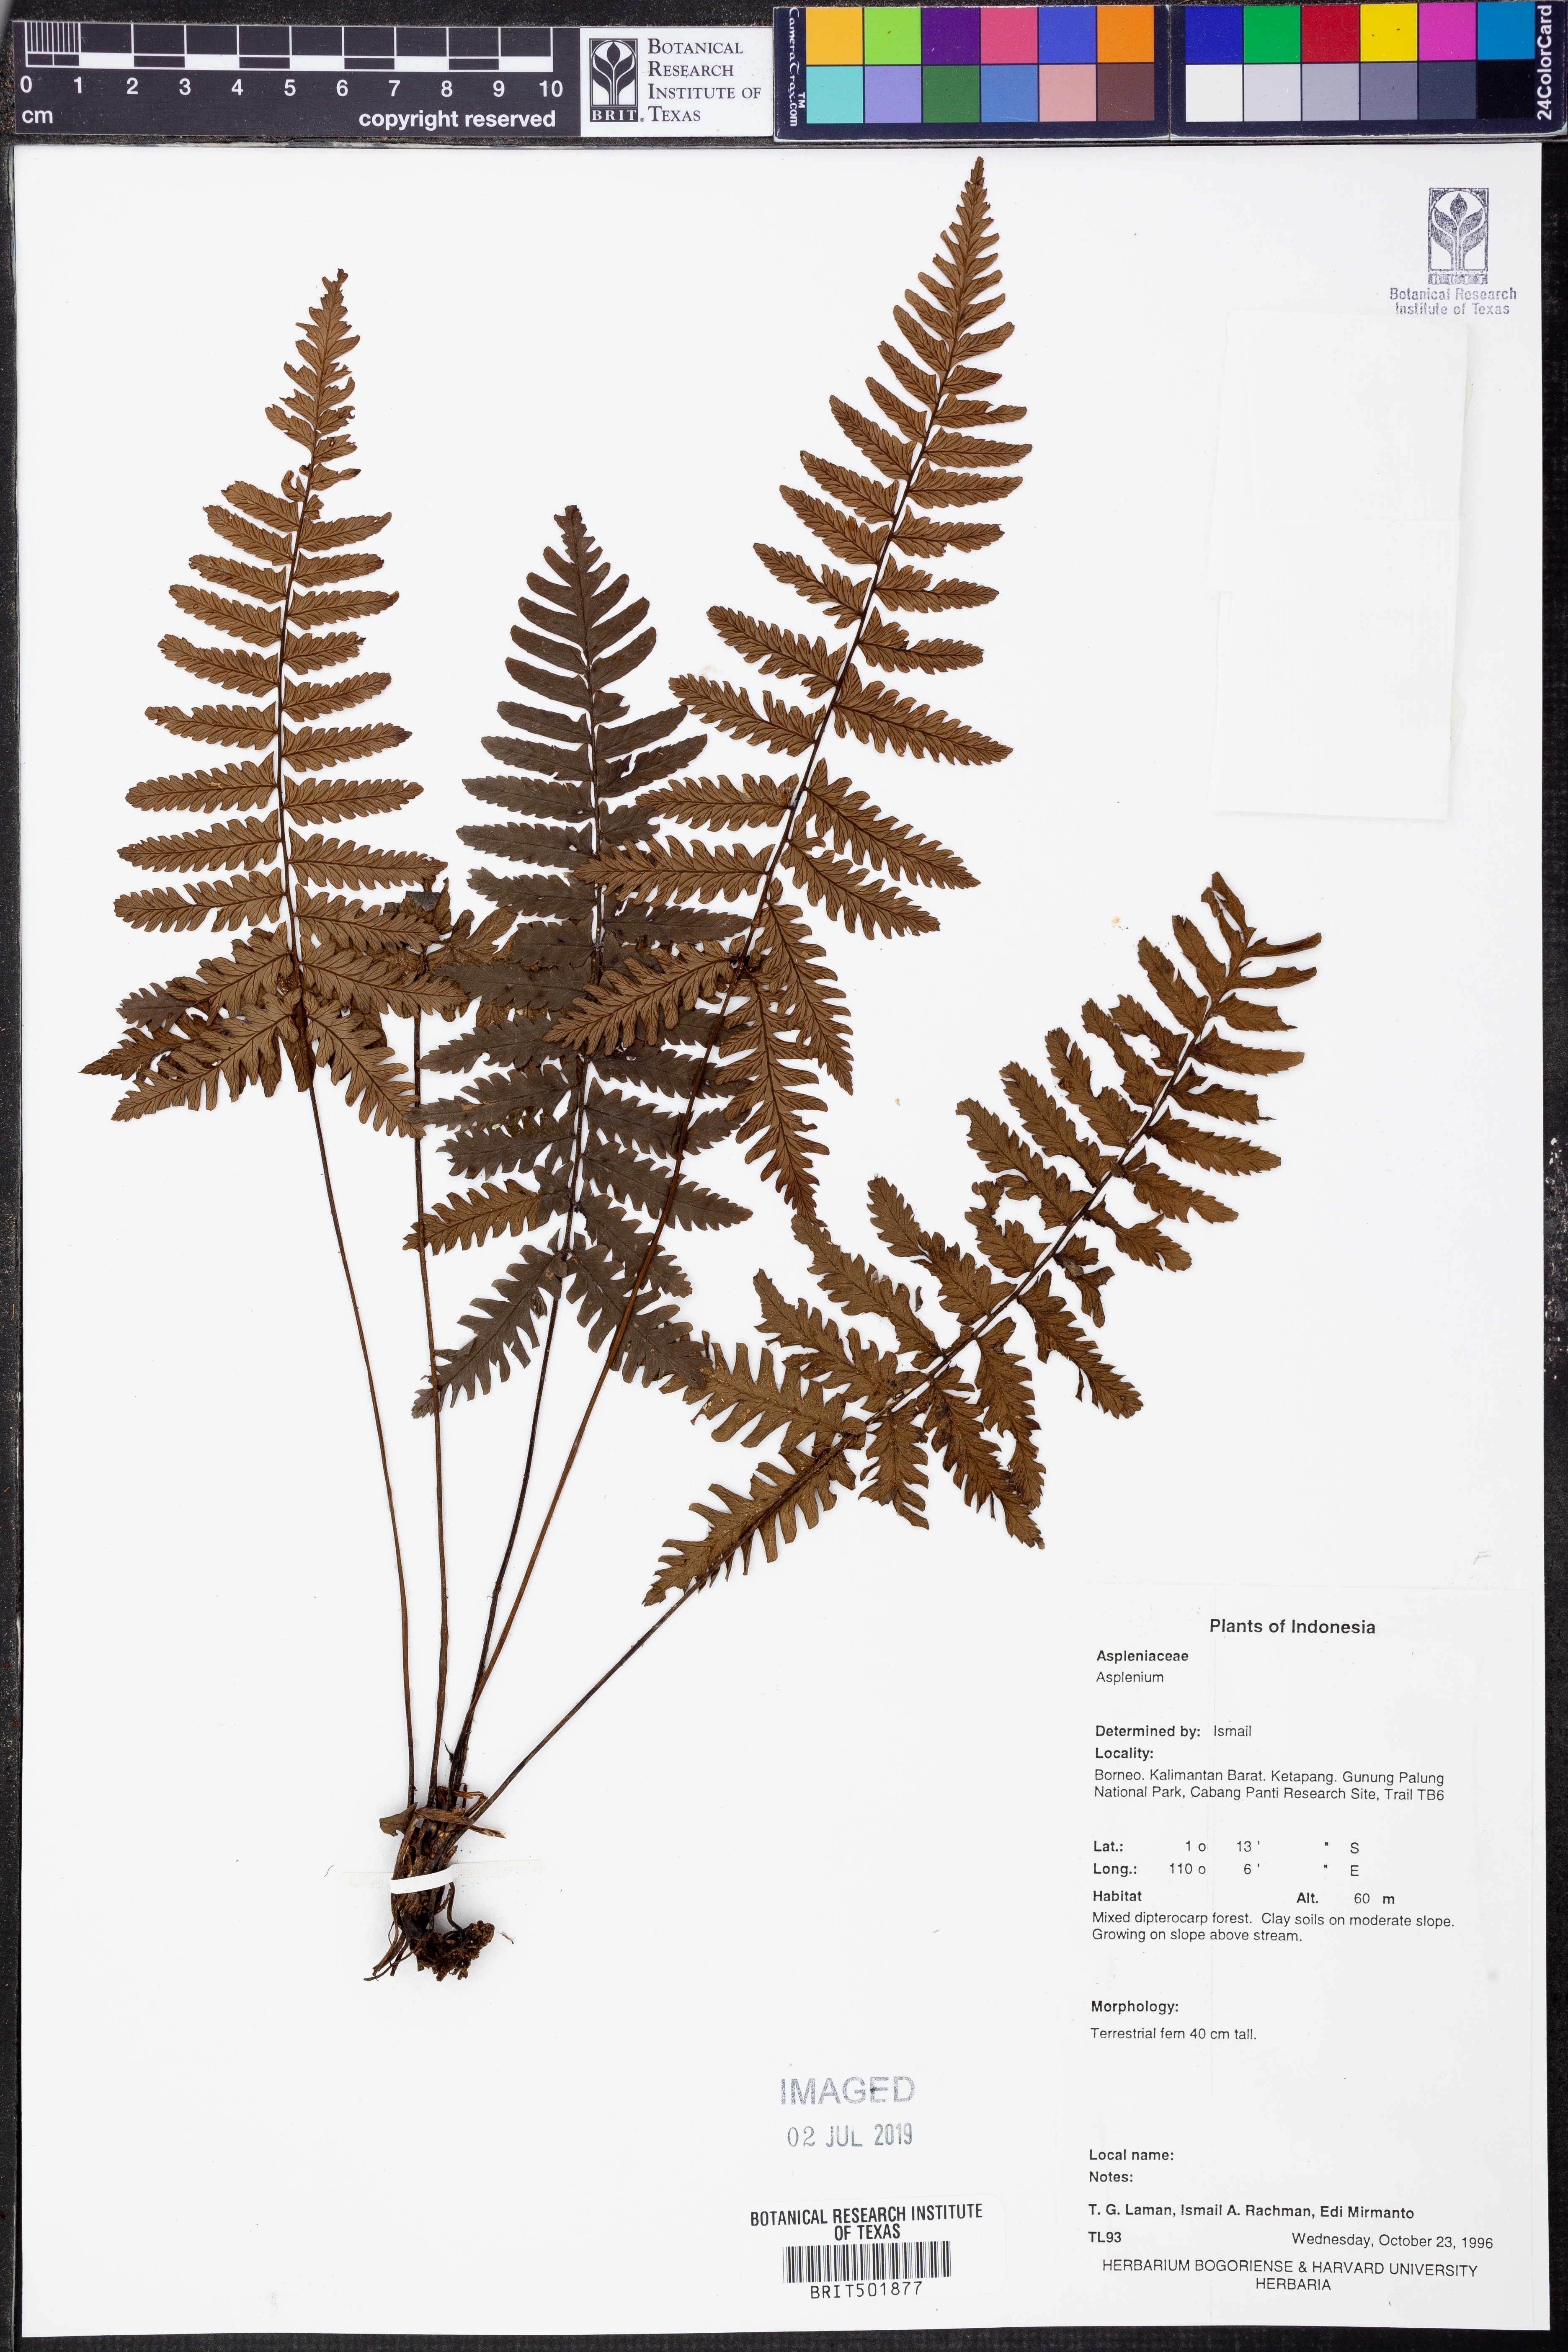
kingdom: Plantae
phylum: Tracheophyta
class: Polypodiopsida
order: Polypodiales
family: Aspleniaceae
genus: Asplenium
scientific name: Asplenium
